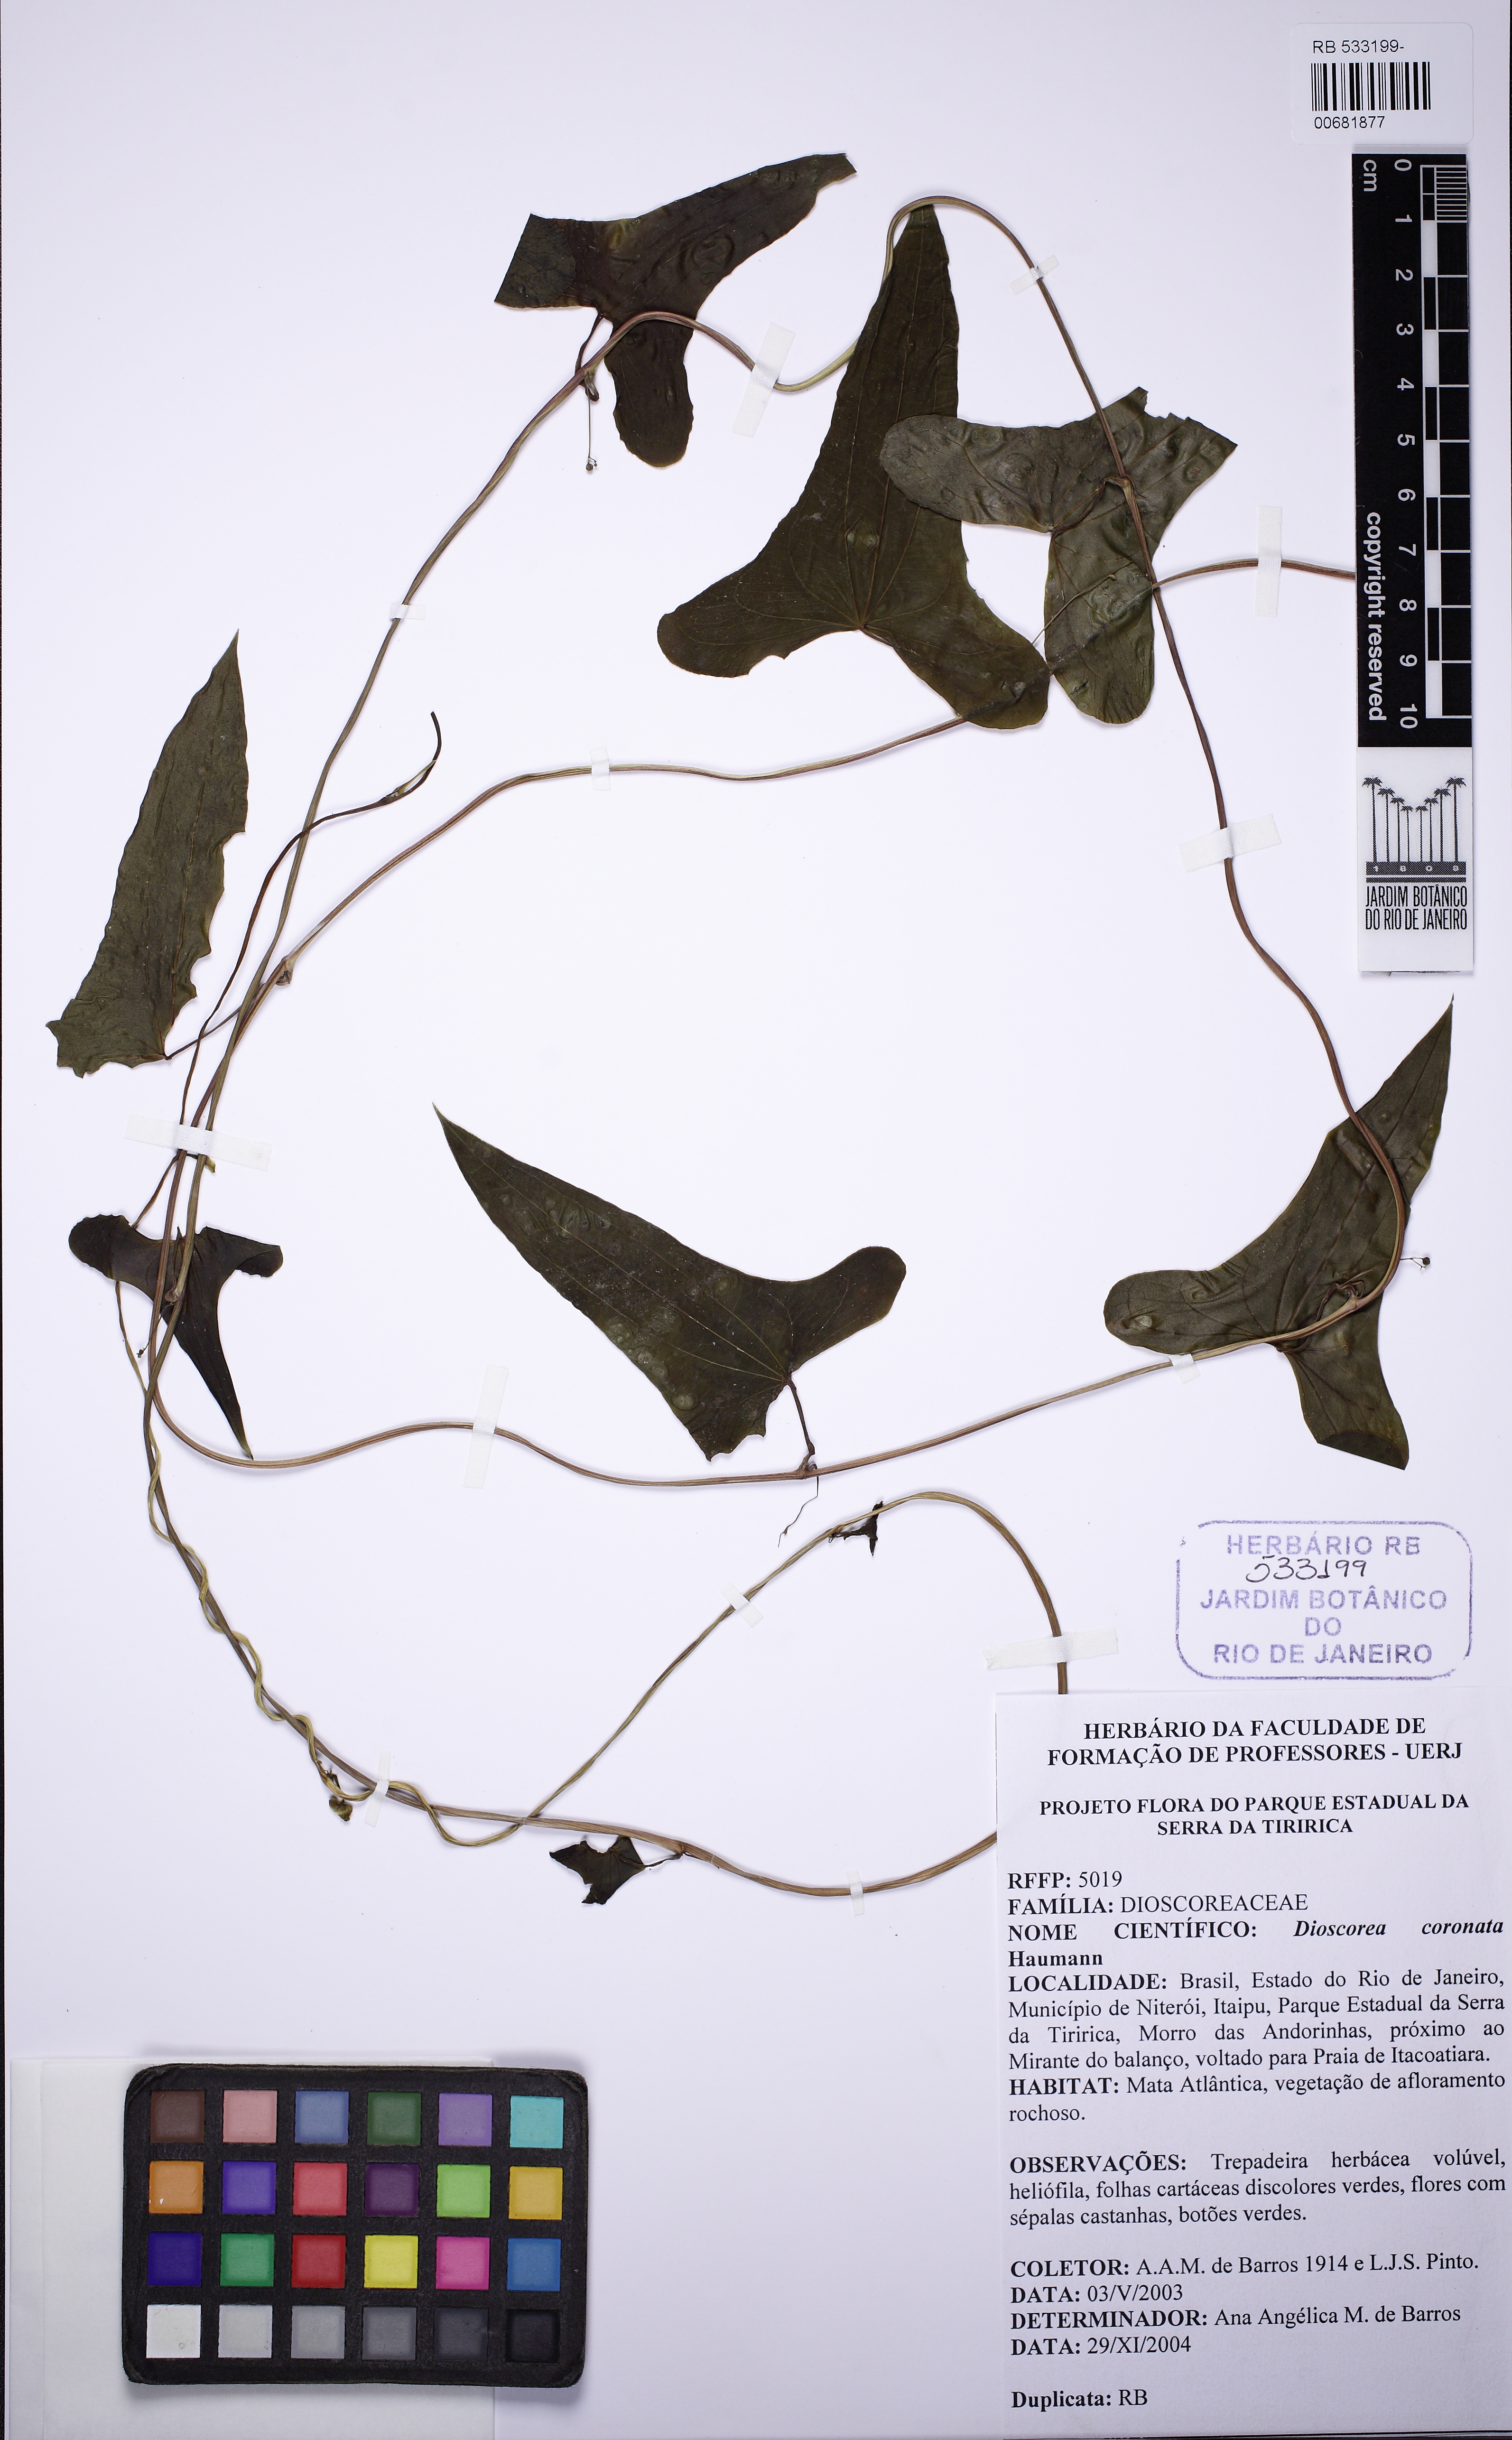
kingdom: Plantae
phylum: Tracheophyta
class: Liliopsida
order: Dioscoreales
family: Dioscoreaceae
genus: Dioscorea
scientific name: Dioscorea coronata
